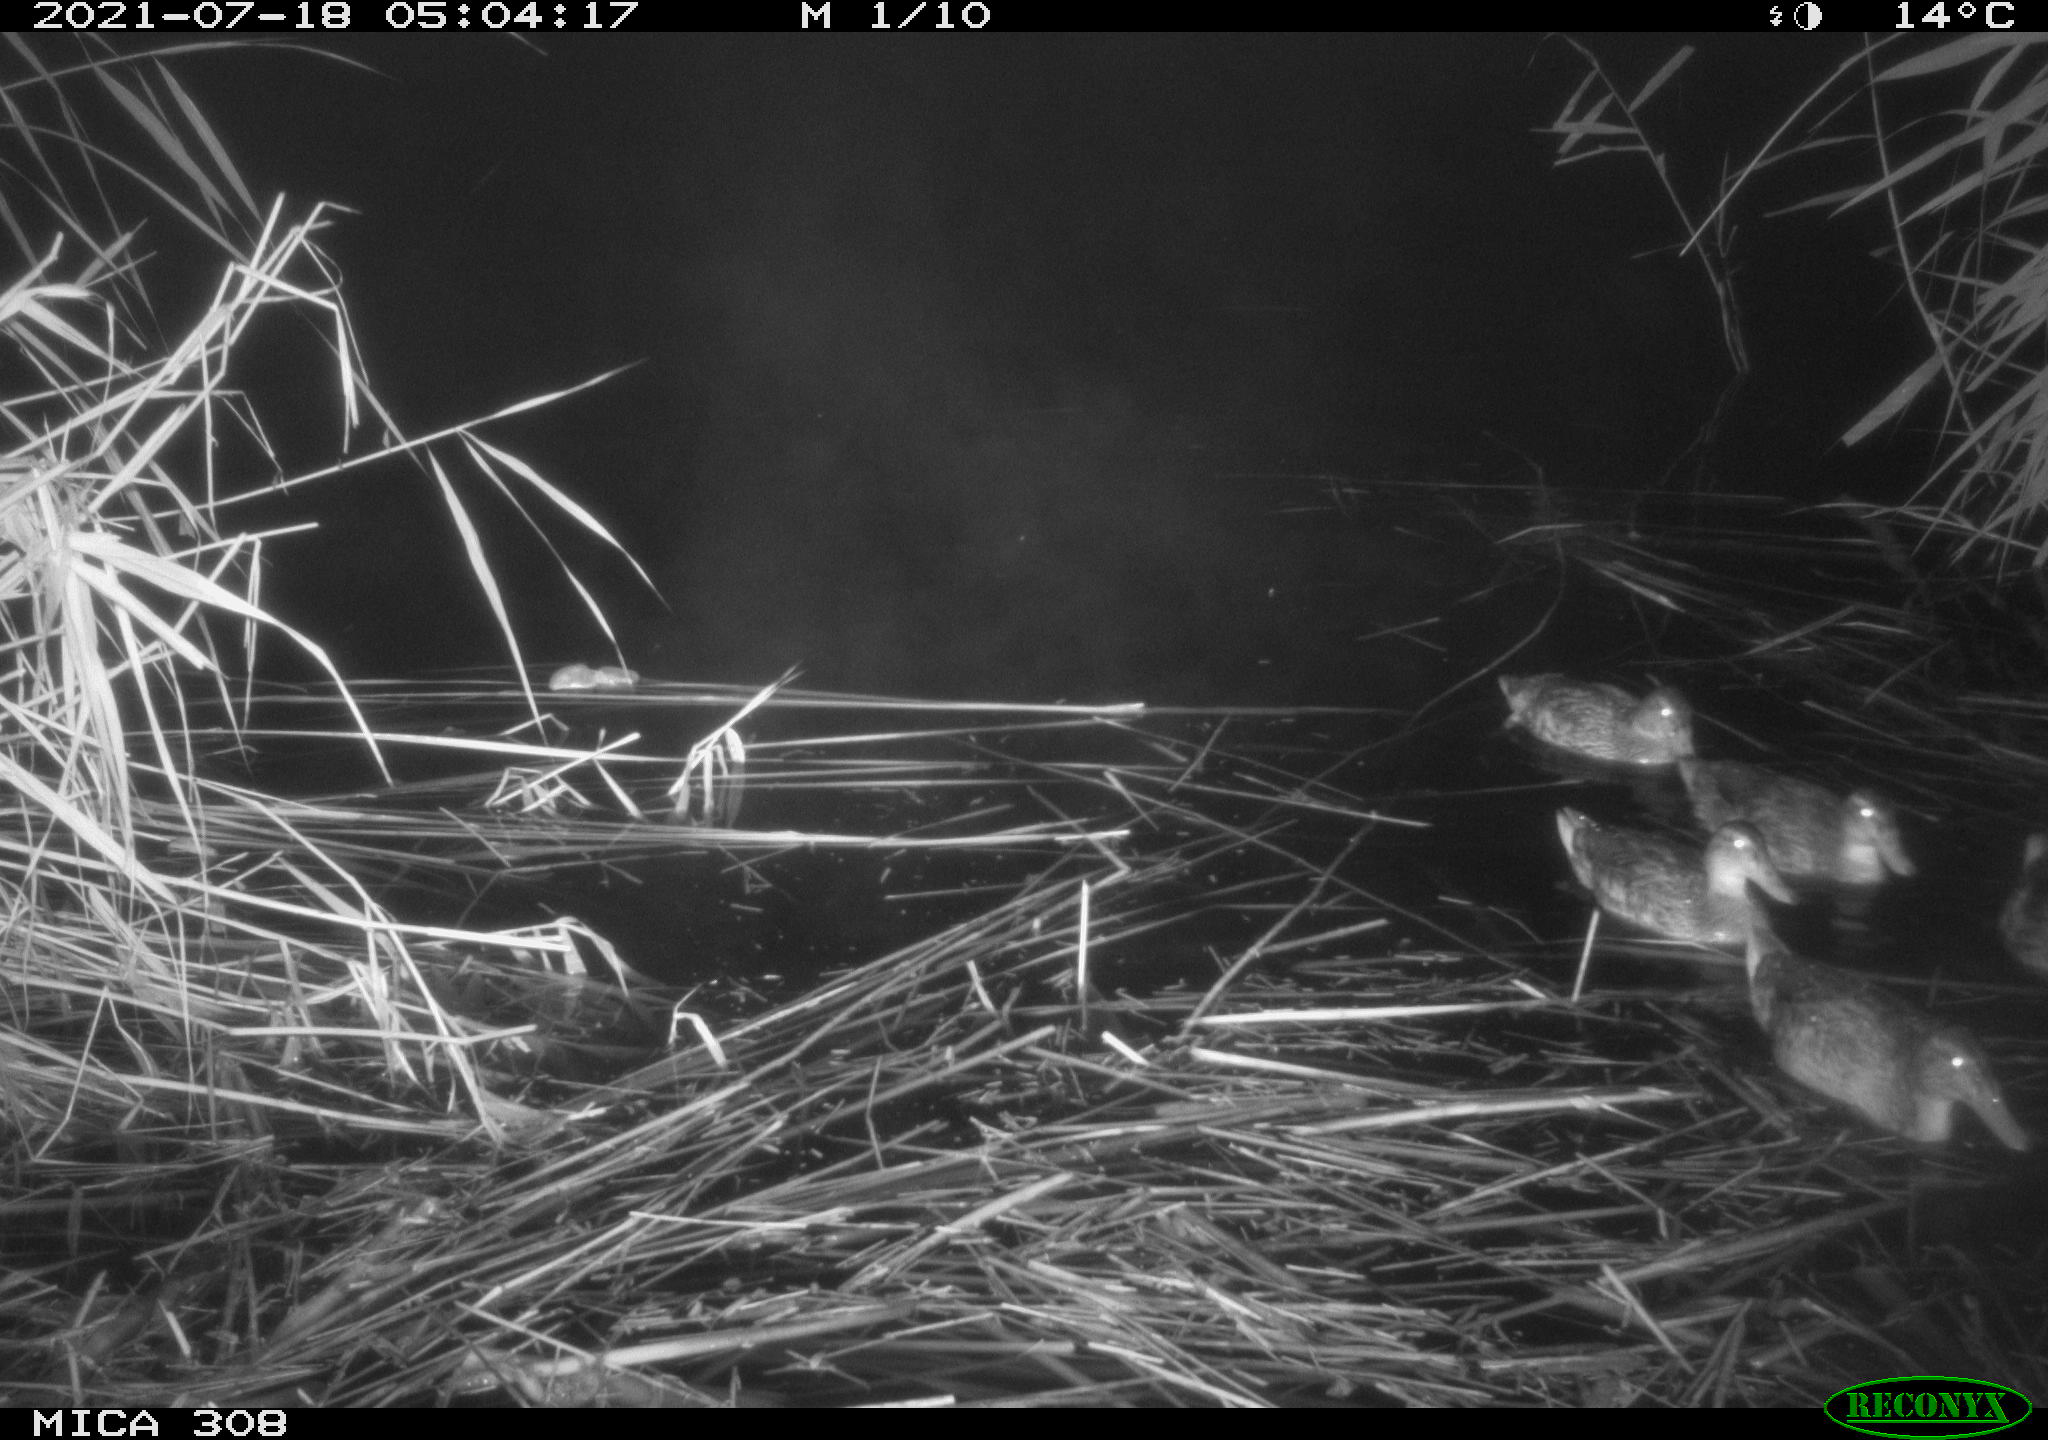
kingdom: Animalia
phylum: Chordata
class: Aves
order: Anseriformes
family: Anatidae
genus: Anas
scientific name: Anas platyrhynchos
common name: Mallard
